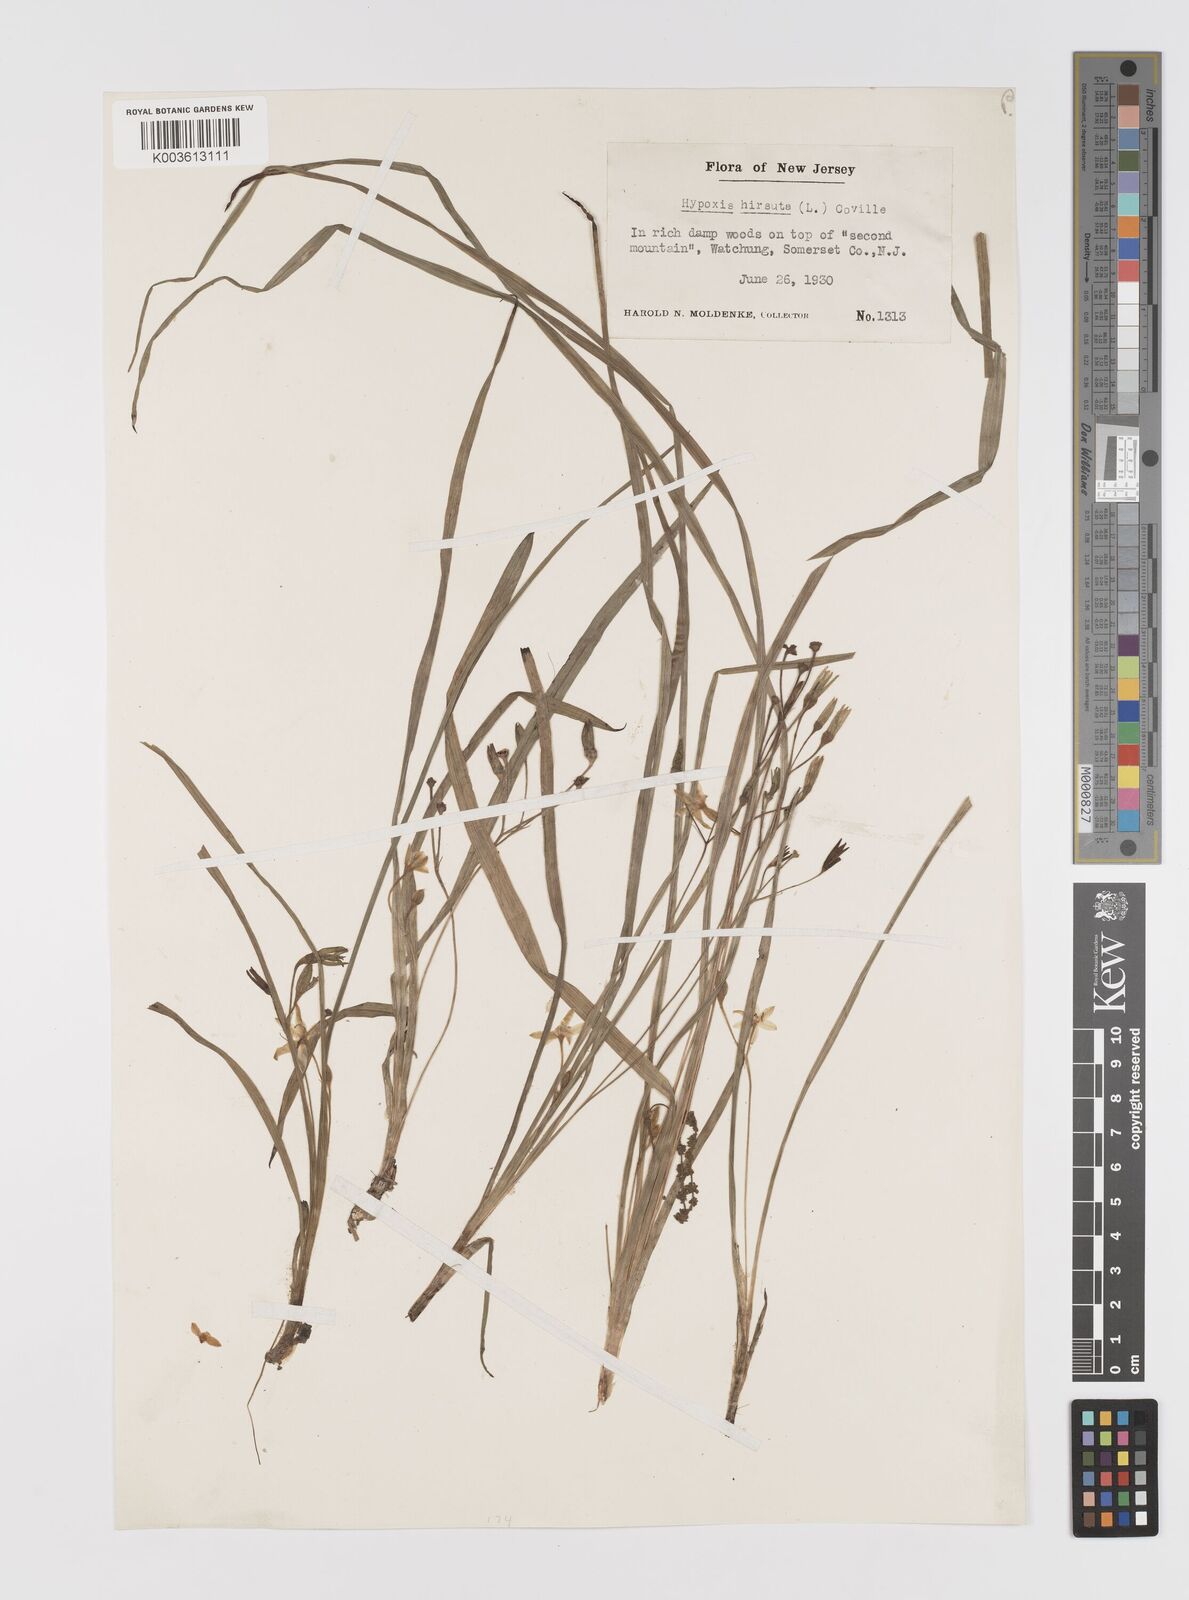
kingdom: Plantae
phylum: Tracheophyta
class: Liliopsida
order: Asparagales
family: Hypoxidaceae
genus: Hypoxis
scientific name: Hypoxis hirsuta
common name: Common goldstar
